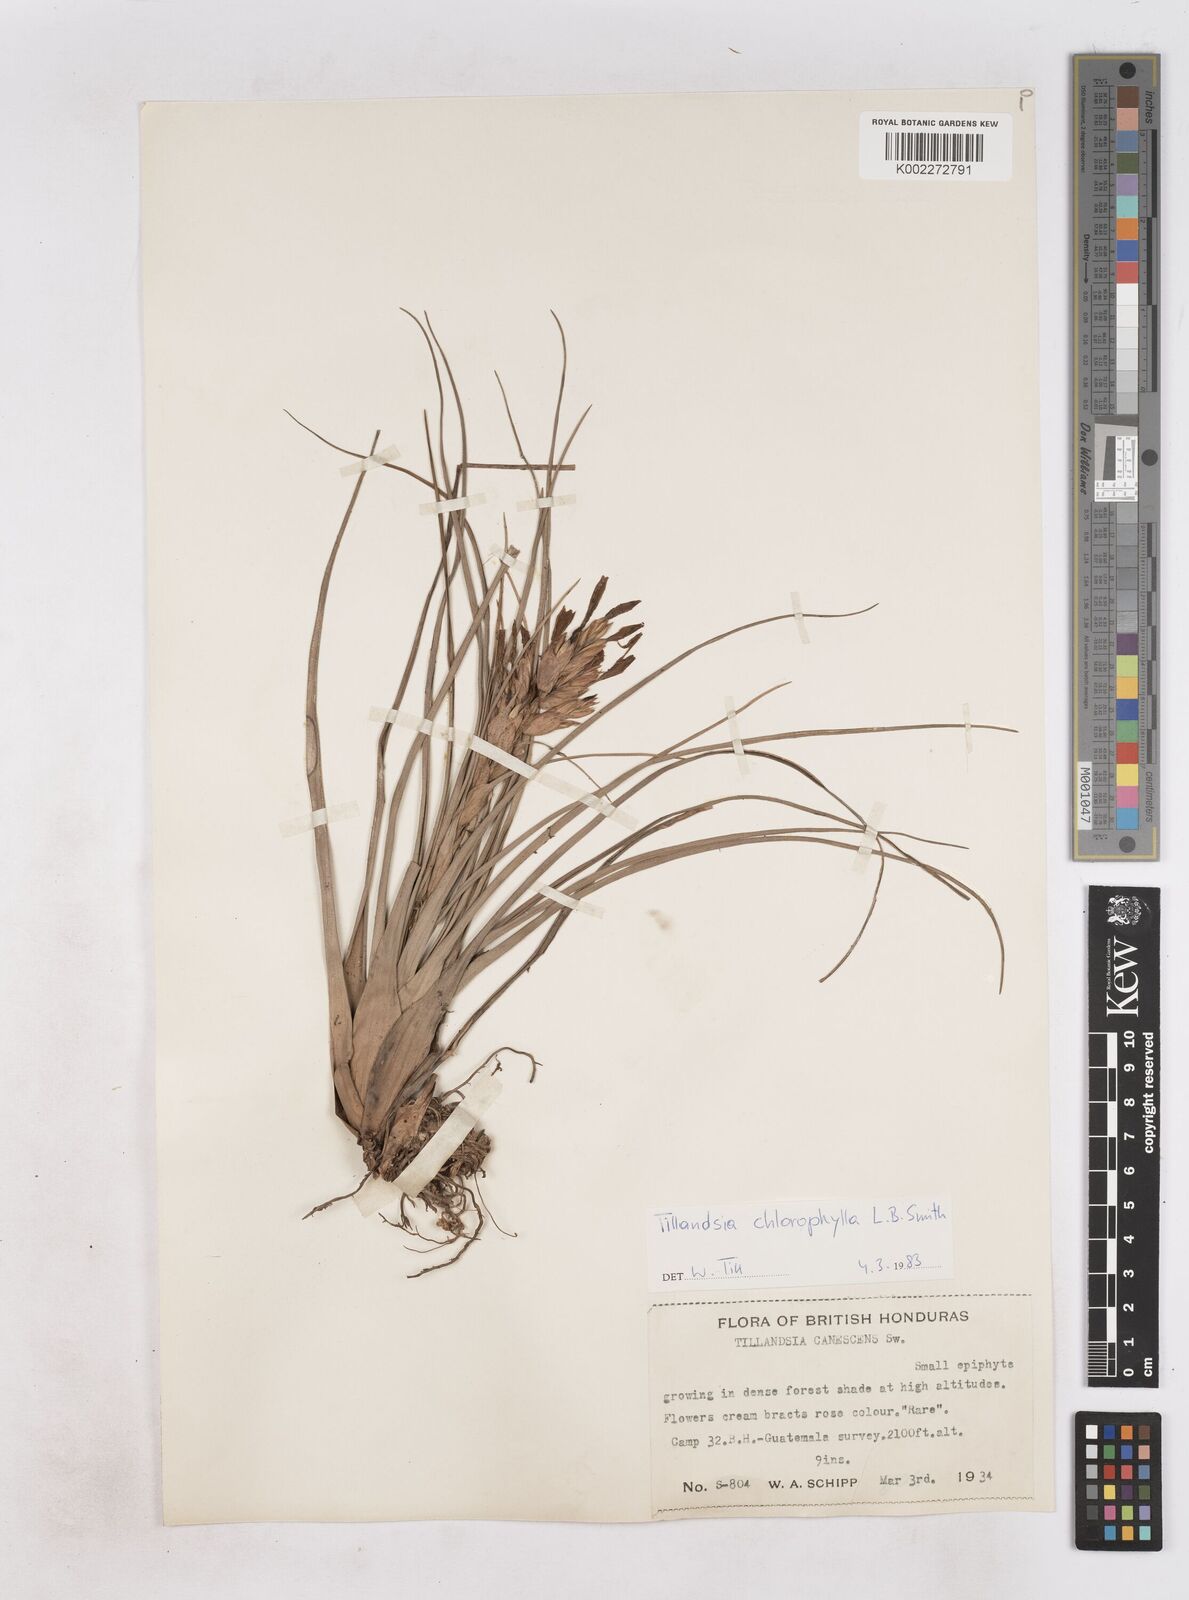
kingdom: Plantae
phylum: Tracheophyta
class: Liliopsida
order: Poales
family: Bromeliaceae
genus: Tillandsia
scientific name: Tillandsia chlorophylla
